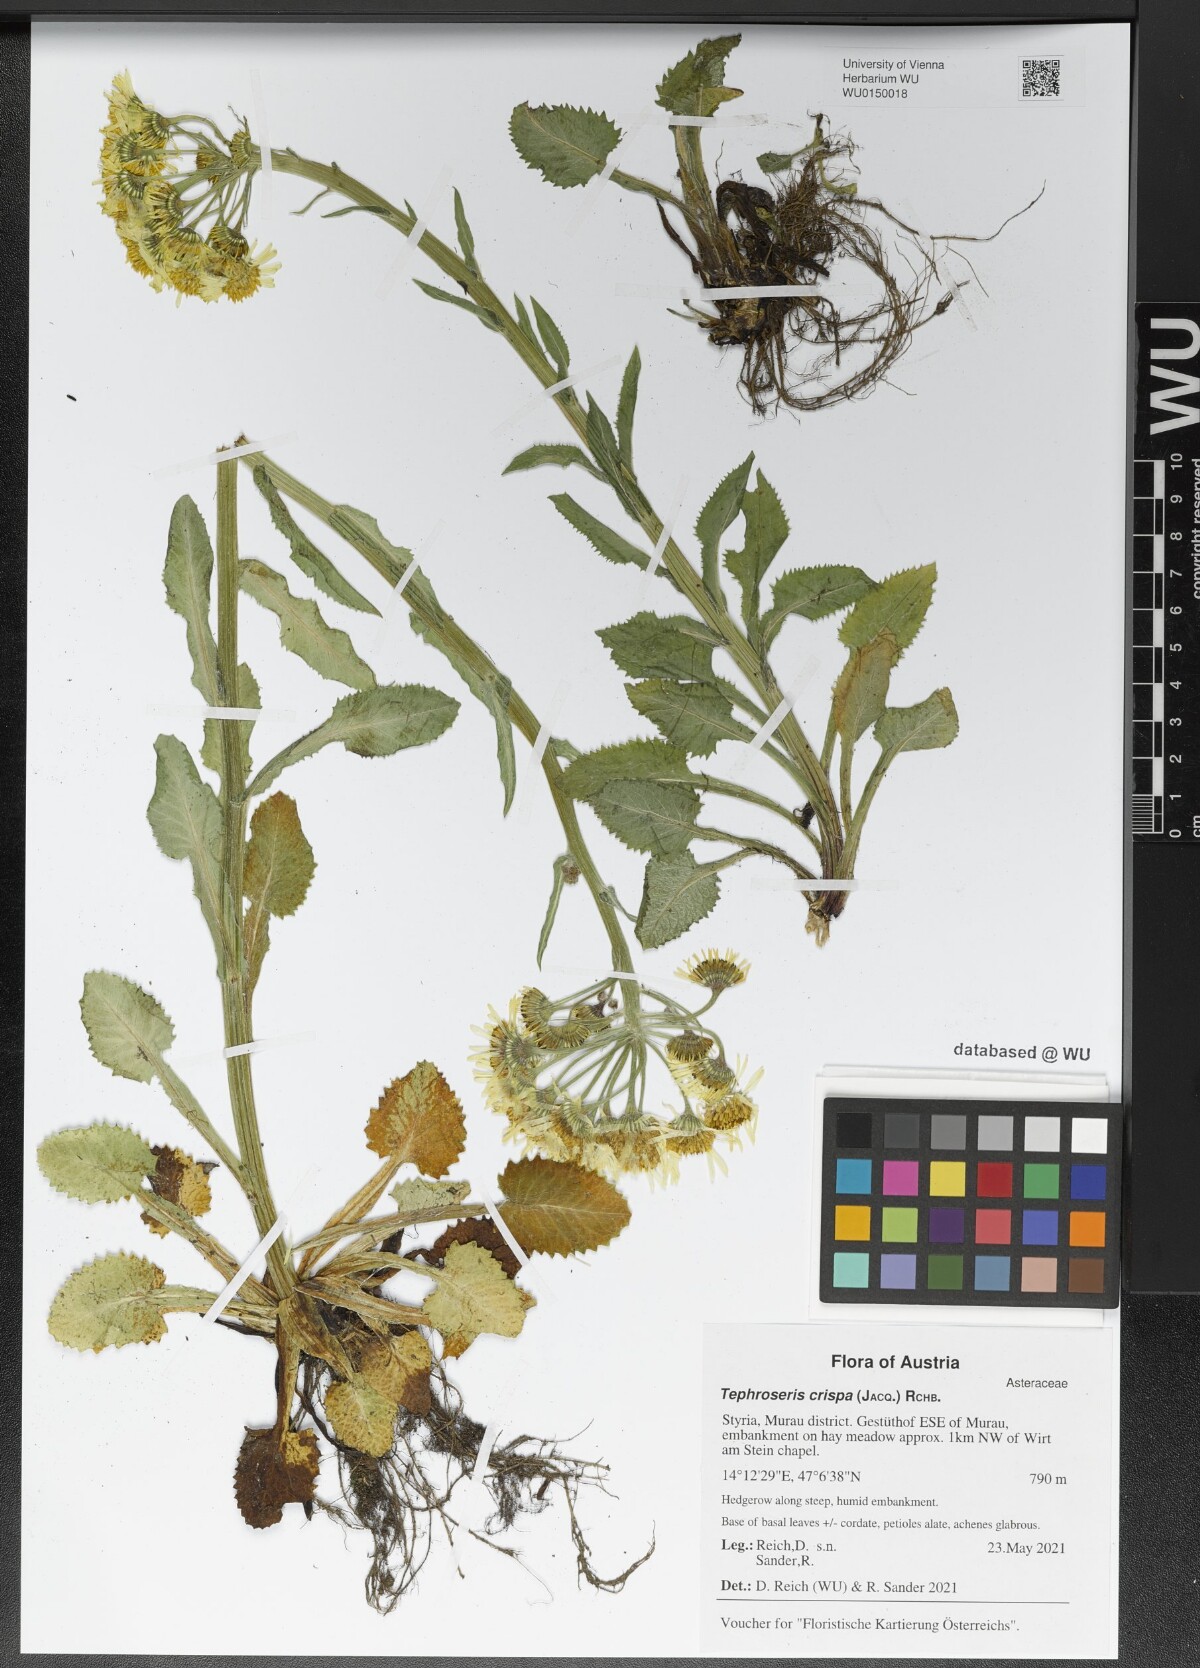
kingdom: Plantae
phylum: Tracheophyta
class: Magnoliopsida
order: Asterales
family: Asteraceae
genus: Tephroseris
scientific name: Tephroseris crispa
